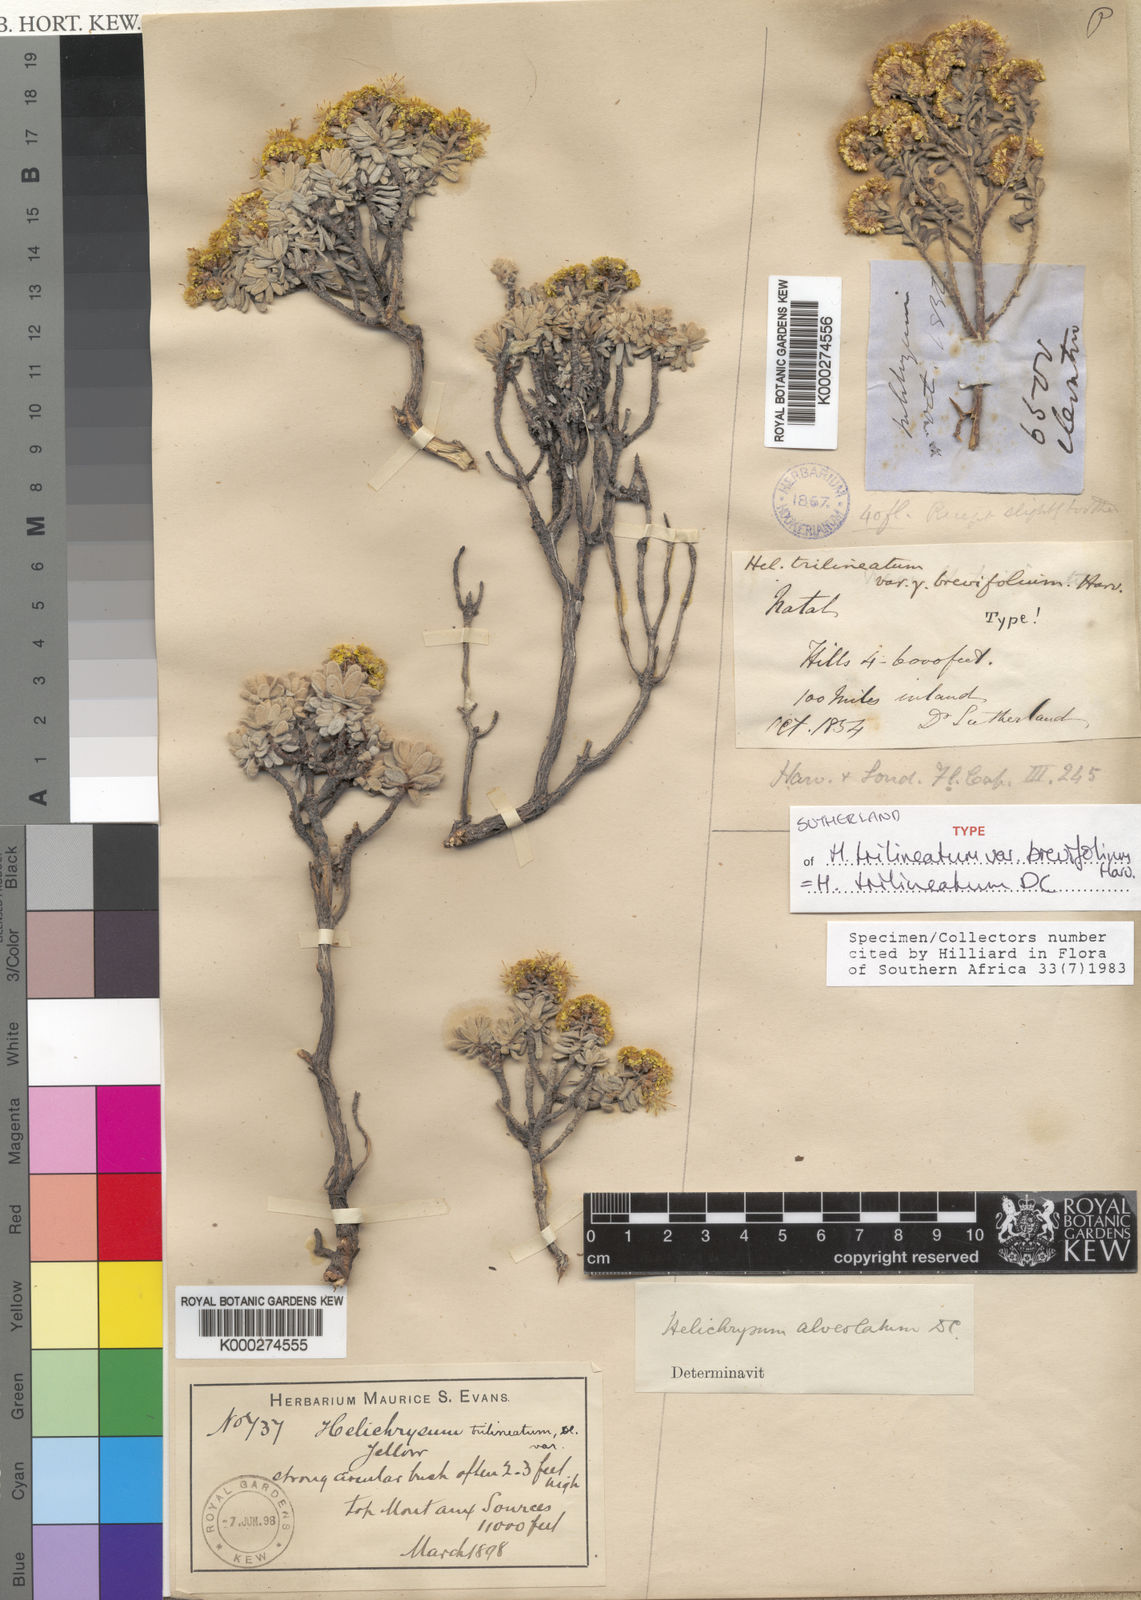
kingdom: Plantae
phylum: Tracheophyta
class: Magnoliopsida
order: Asterales
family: Asteraceae
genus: Helichrysum
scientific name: Helichrysum trilineatum
